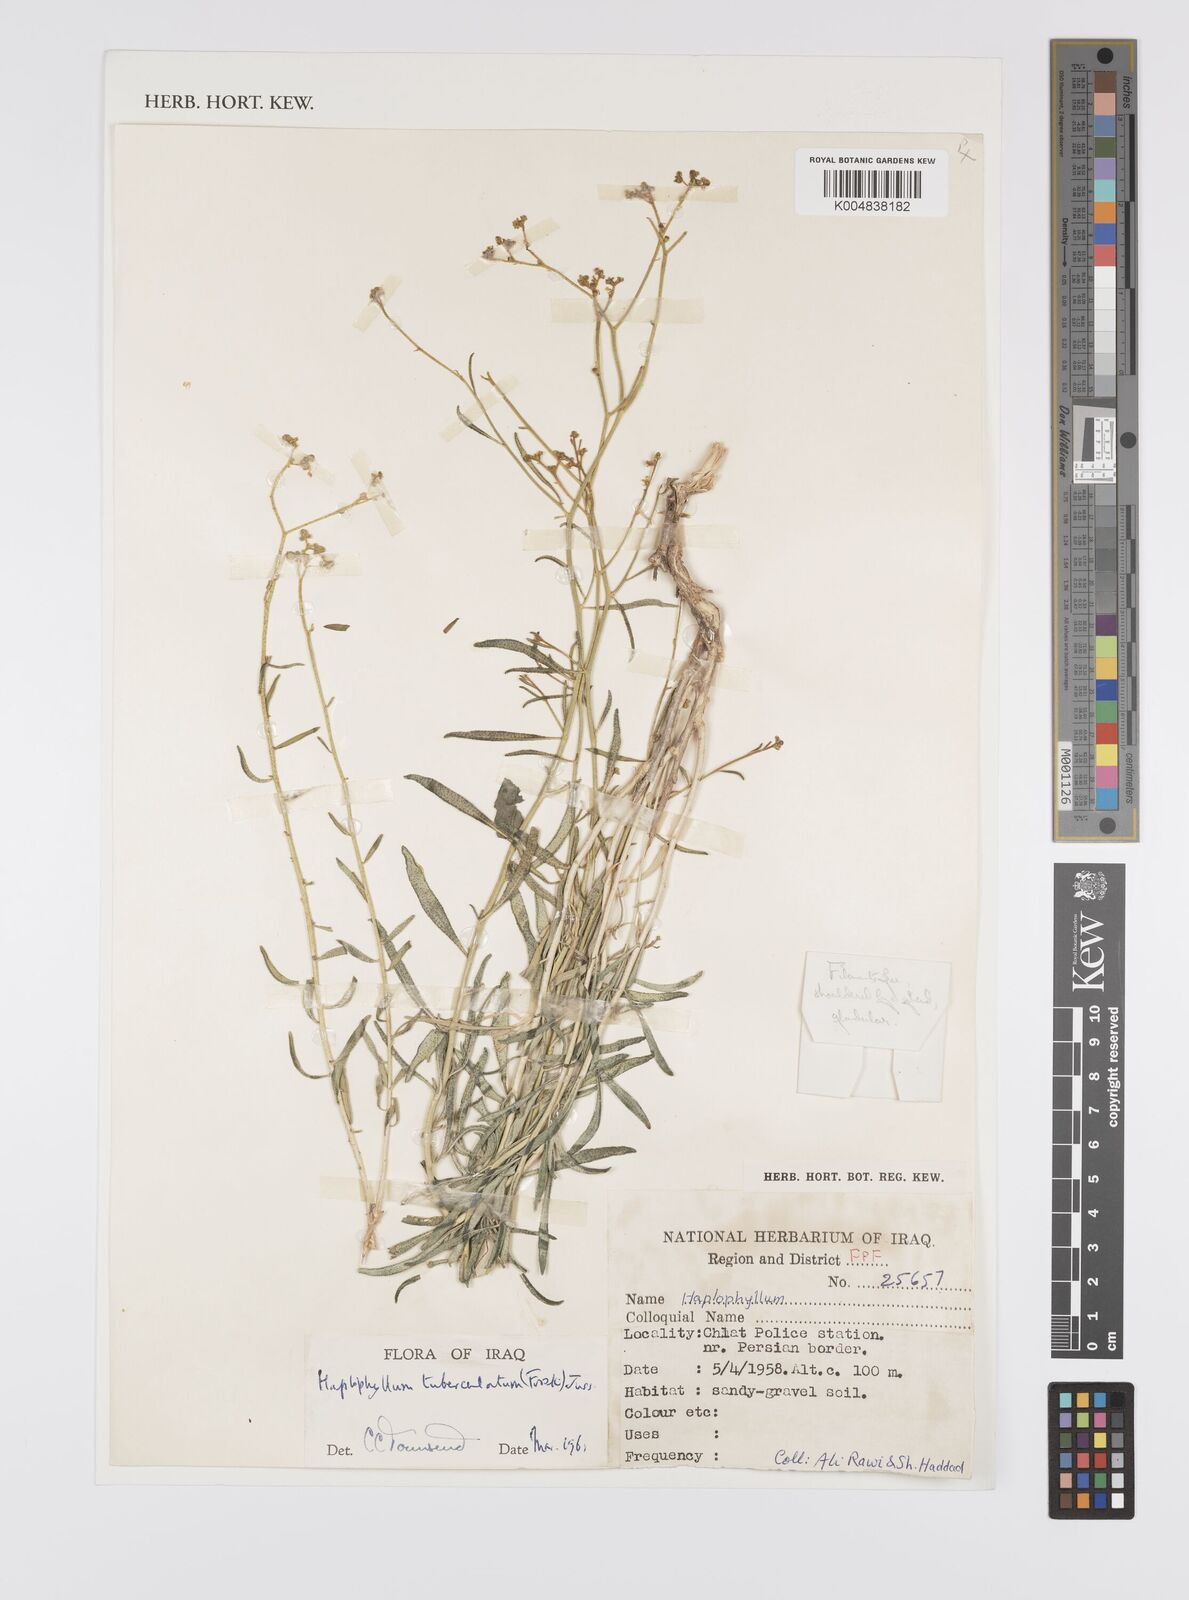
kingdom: Plantae
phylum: Tracheophyta
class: Magnoliopsida
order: Sapindales
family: Rutaceae
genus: Haplophyllum
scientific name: Haplophyllum tuberculatum
